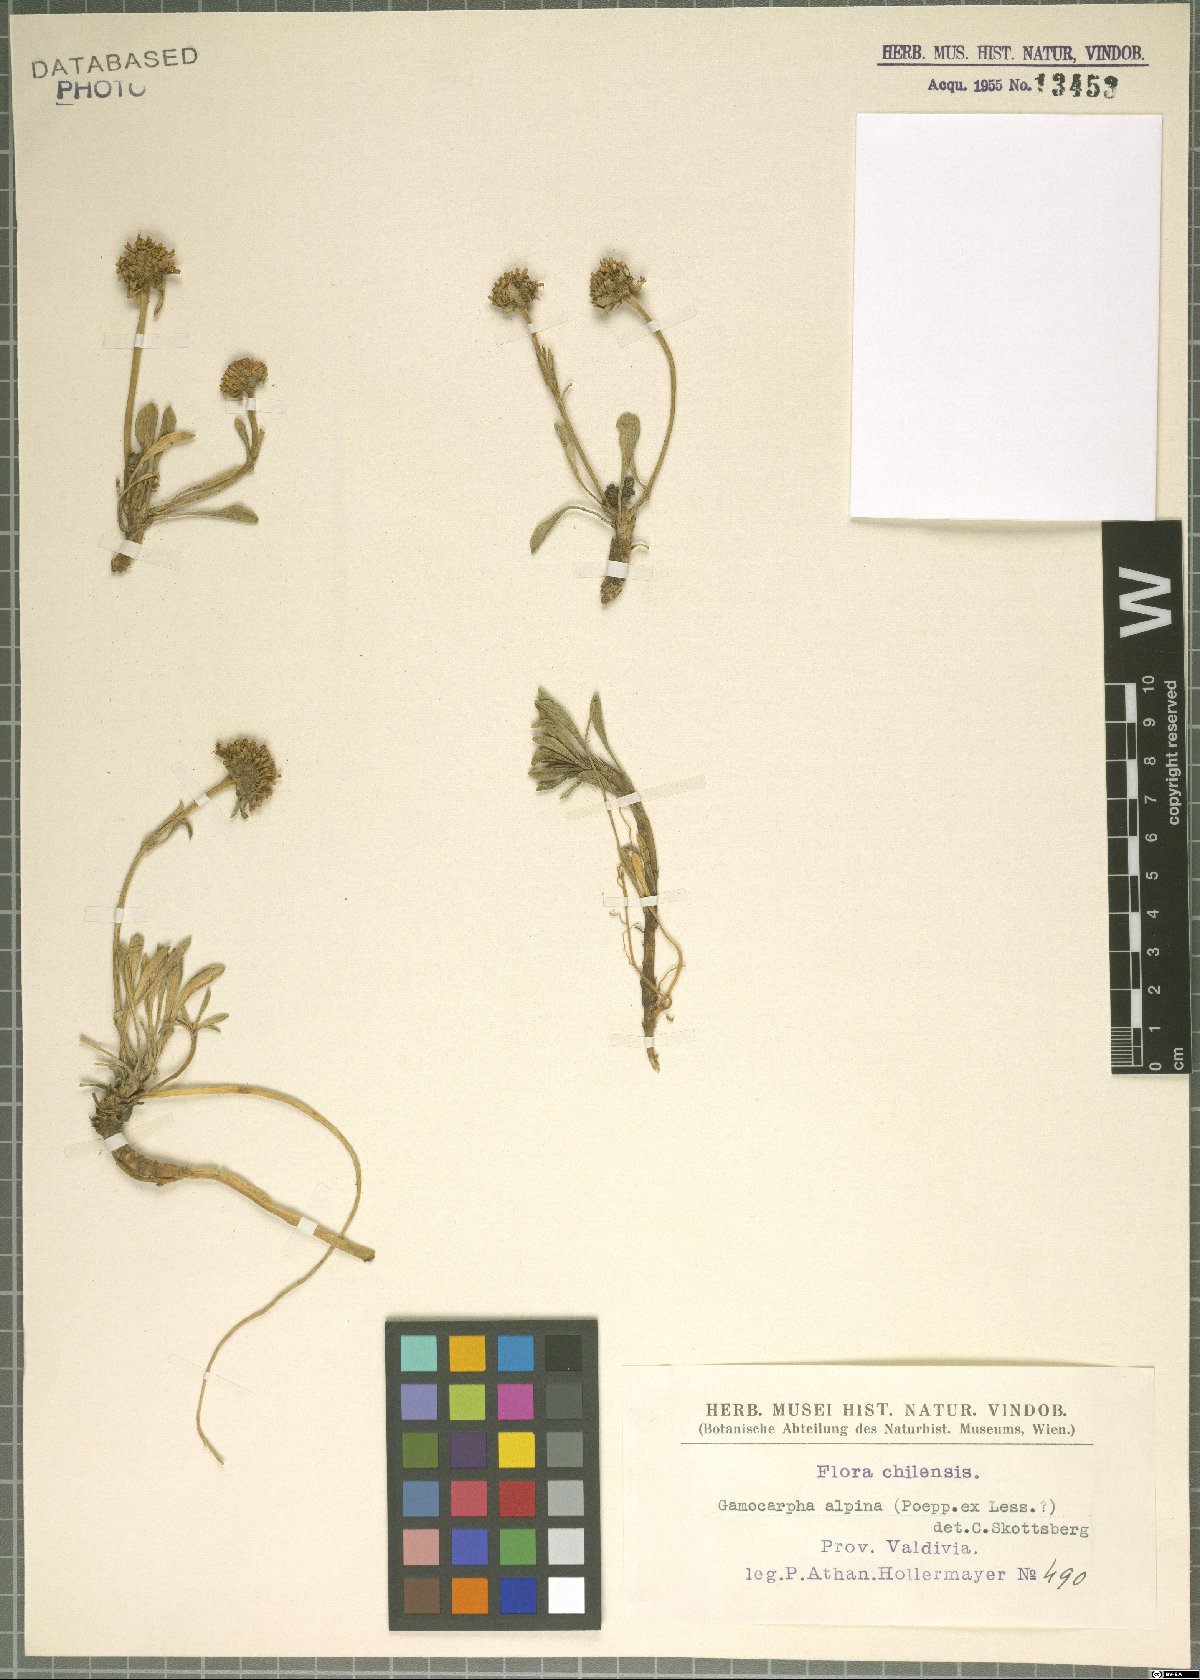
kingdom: Plantae
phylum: Tracheophyta
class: Magnoliopsida
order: Asterales
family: Calyceraceae
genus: Gamocarpha
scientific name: Gamocarpha alpina
